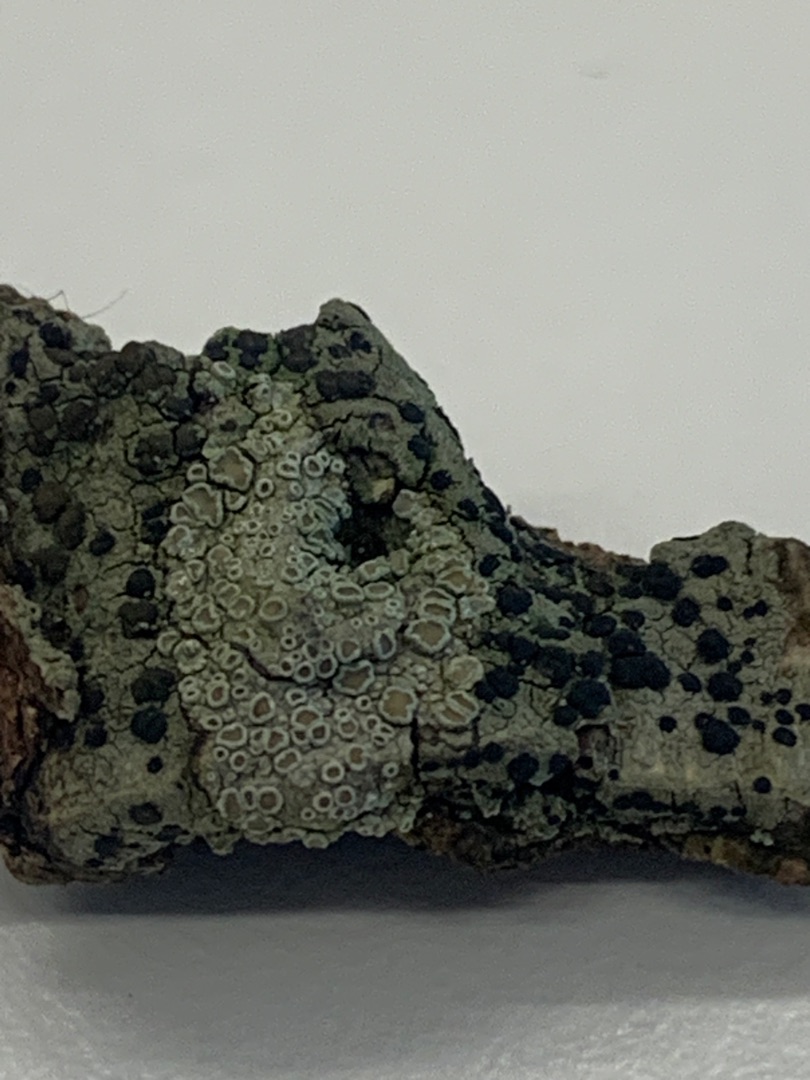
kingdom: Fungi
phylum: Ascomycota
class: Lecanoromycetes
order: Lecanorales
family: Lecanoraceae
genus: Lecidella
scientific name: Lecidella elaeochroma
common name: Grågrøn skivelav
